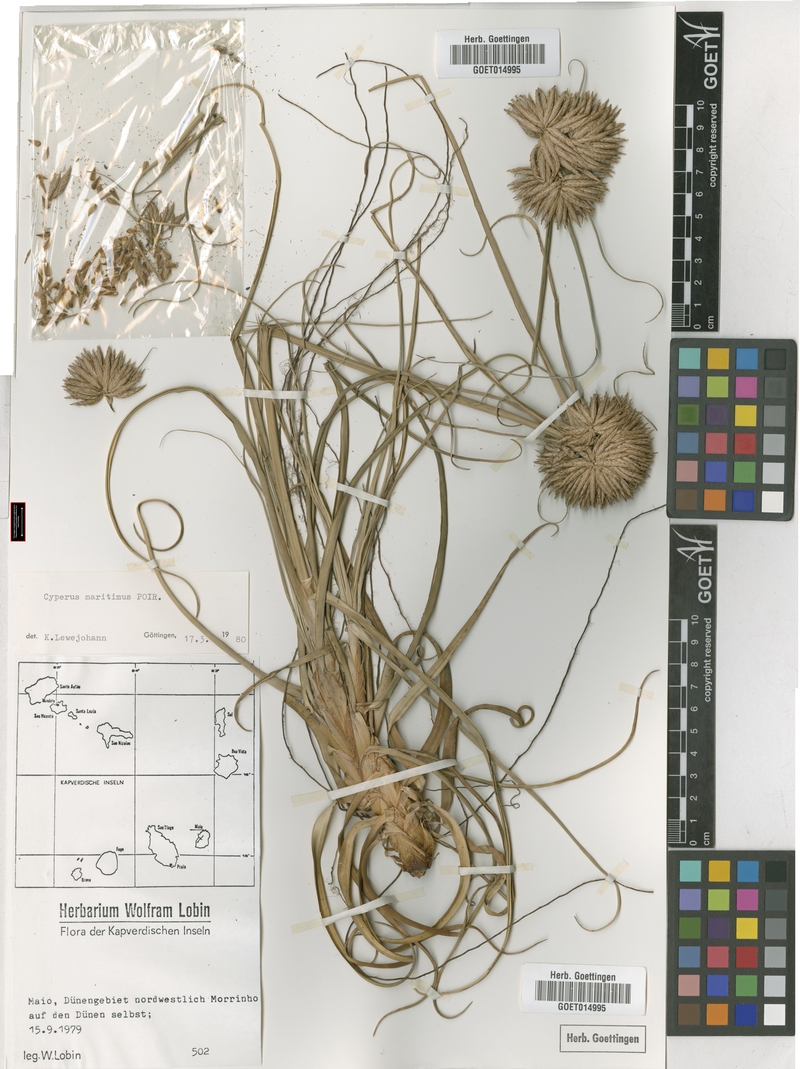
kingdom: Plantae
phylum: Tracheophyta
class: Liliopsida
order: Poales
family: Cyperaceae
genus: Cyperus
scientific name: Cyperus crassipes
